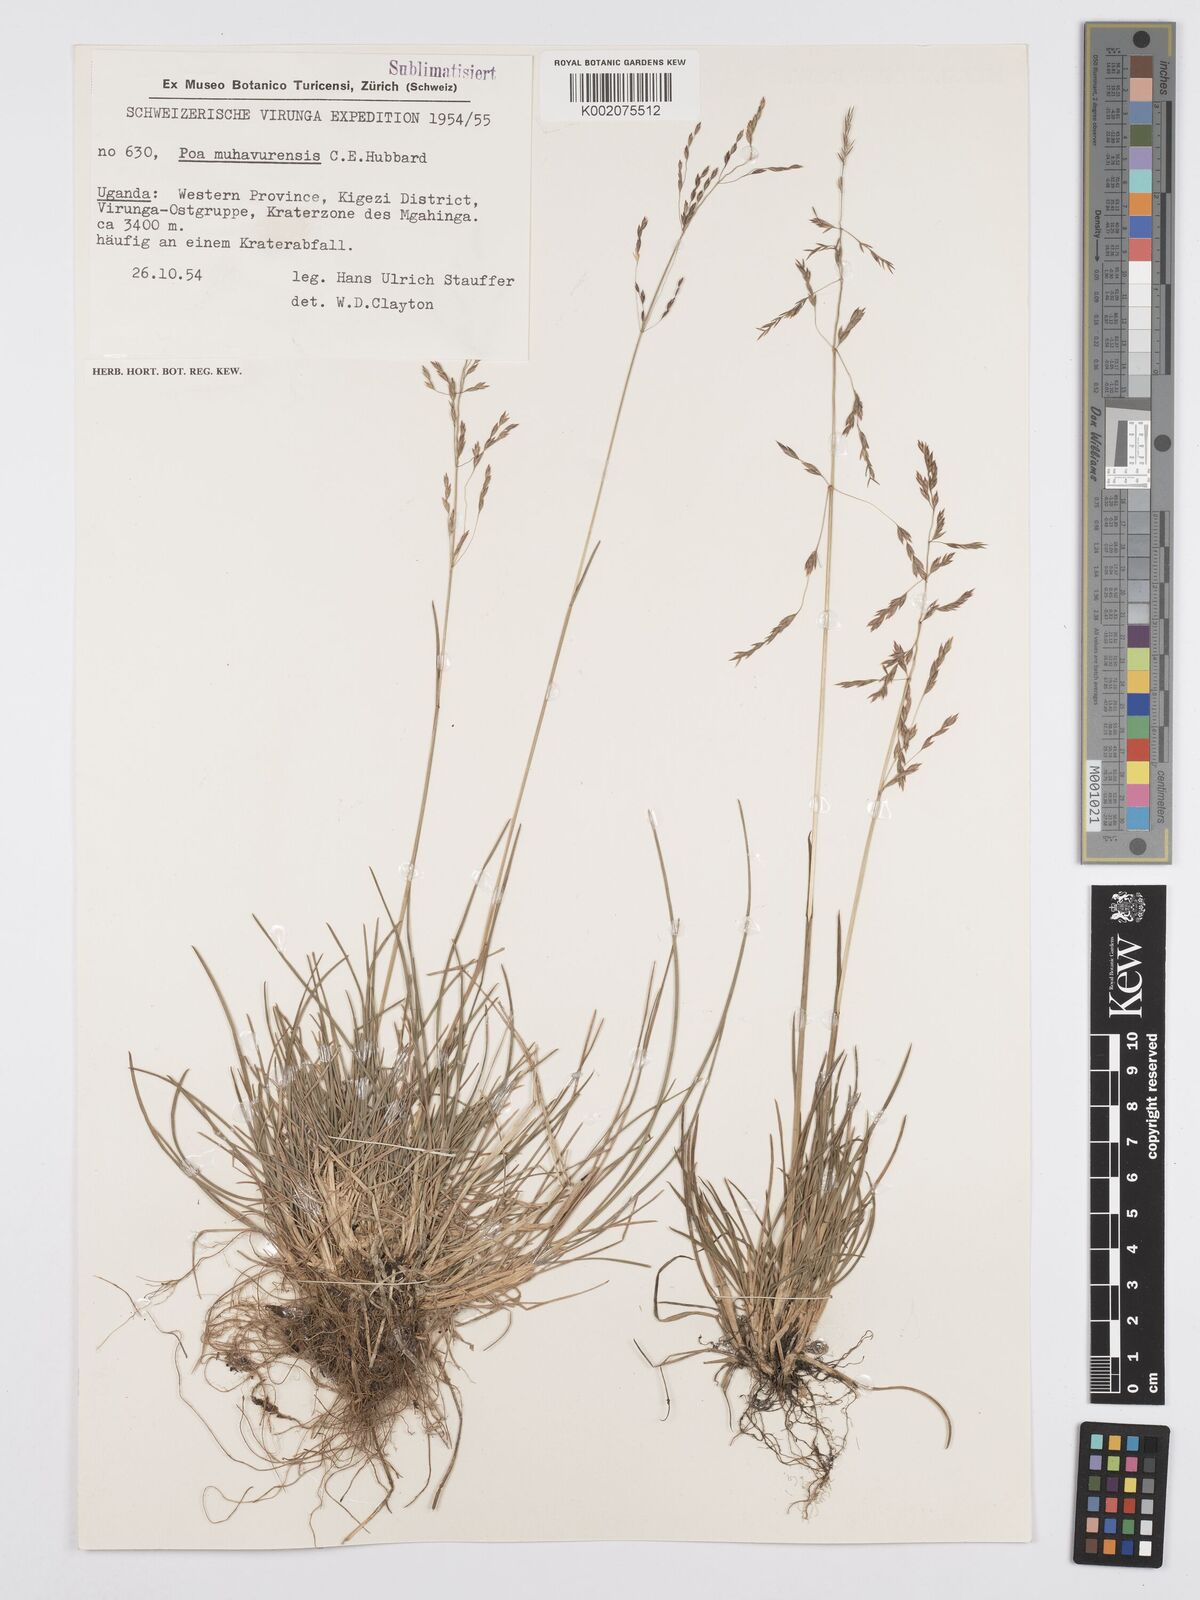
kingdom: Plantae
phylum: Tracheophyta
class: Liliopsida
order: Poales
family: Poaceae
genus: Poa
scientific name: Poa schimperiana
